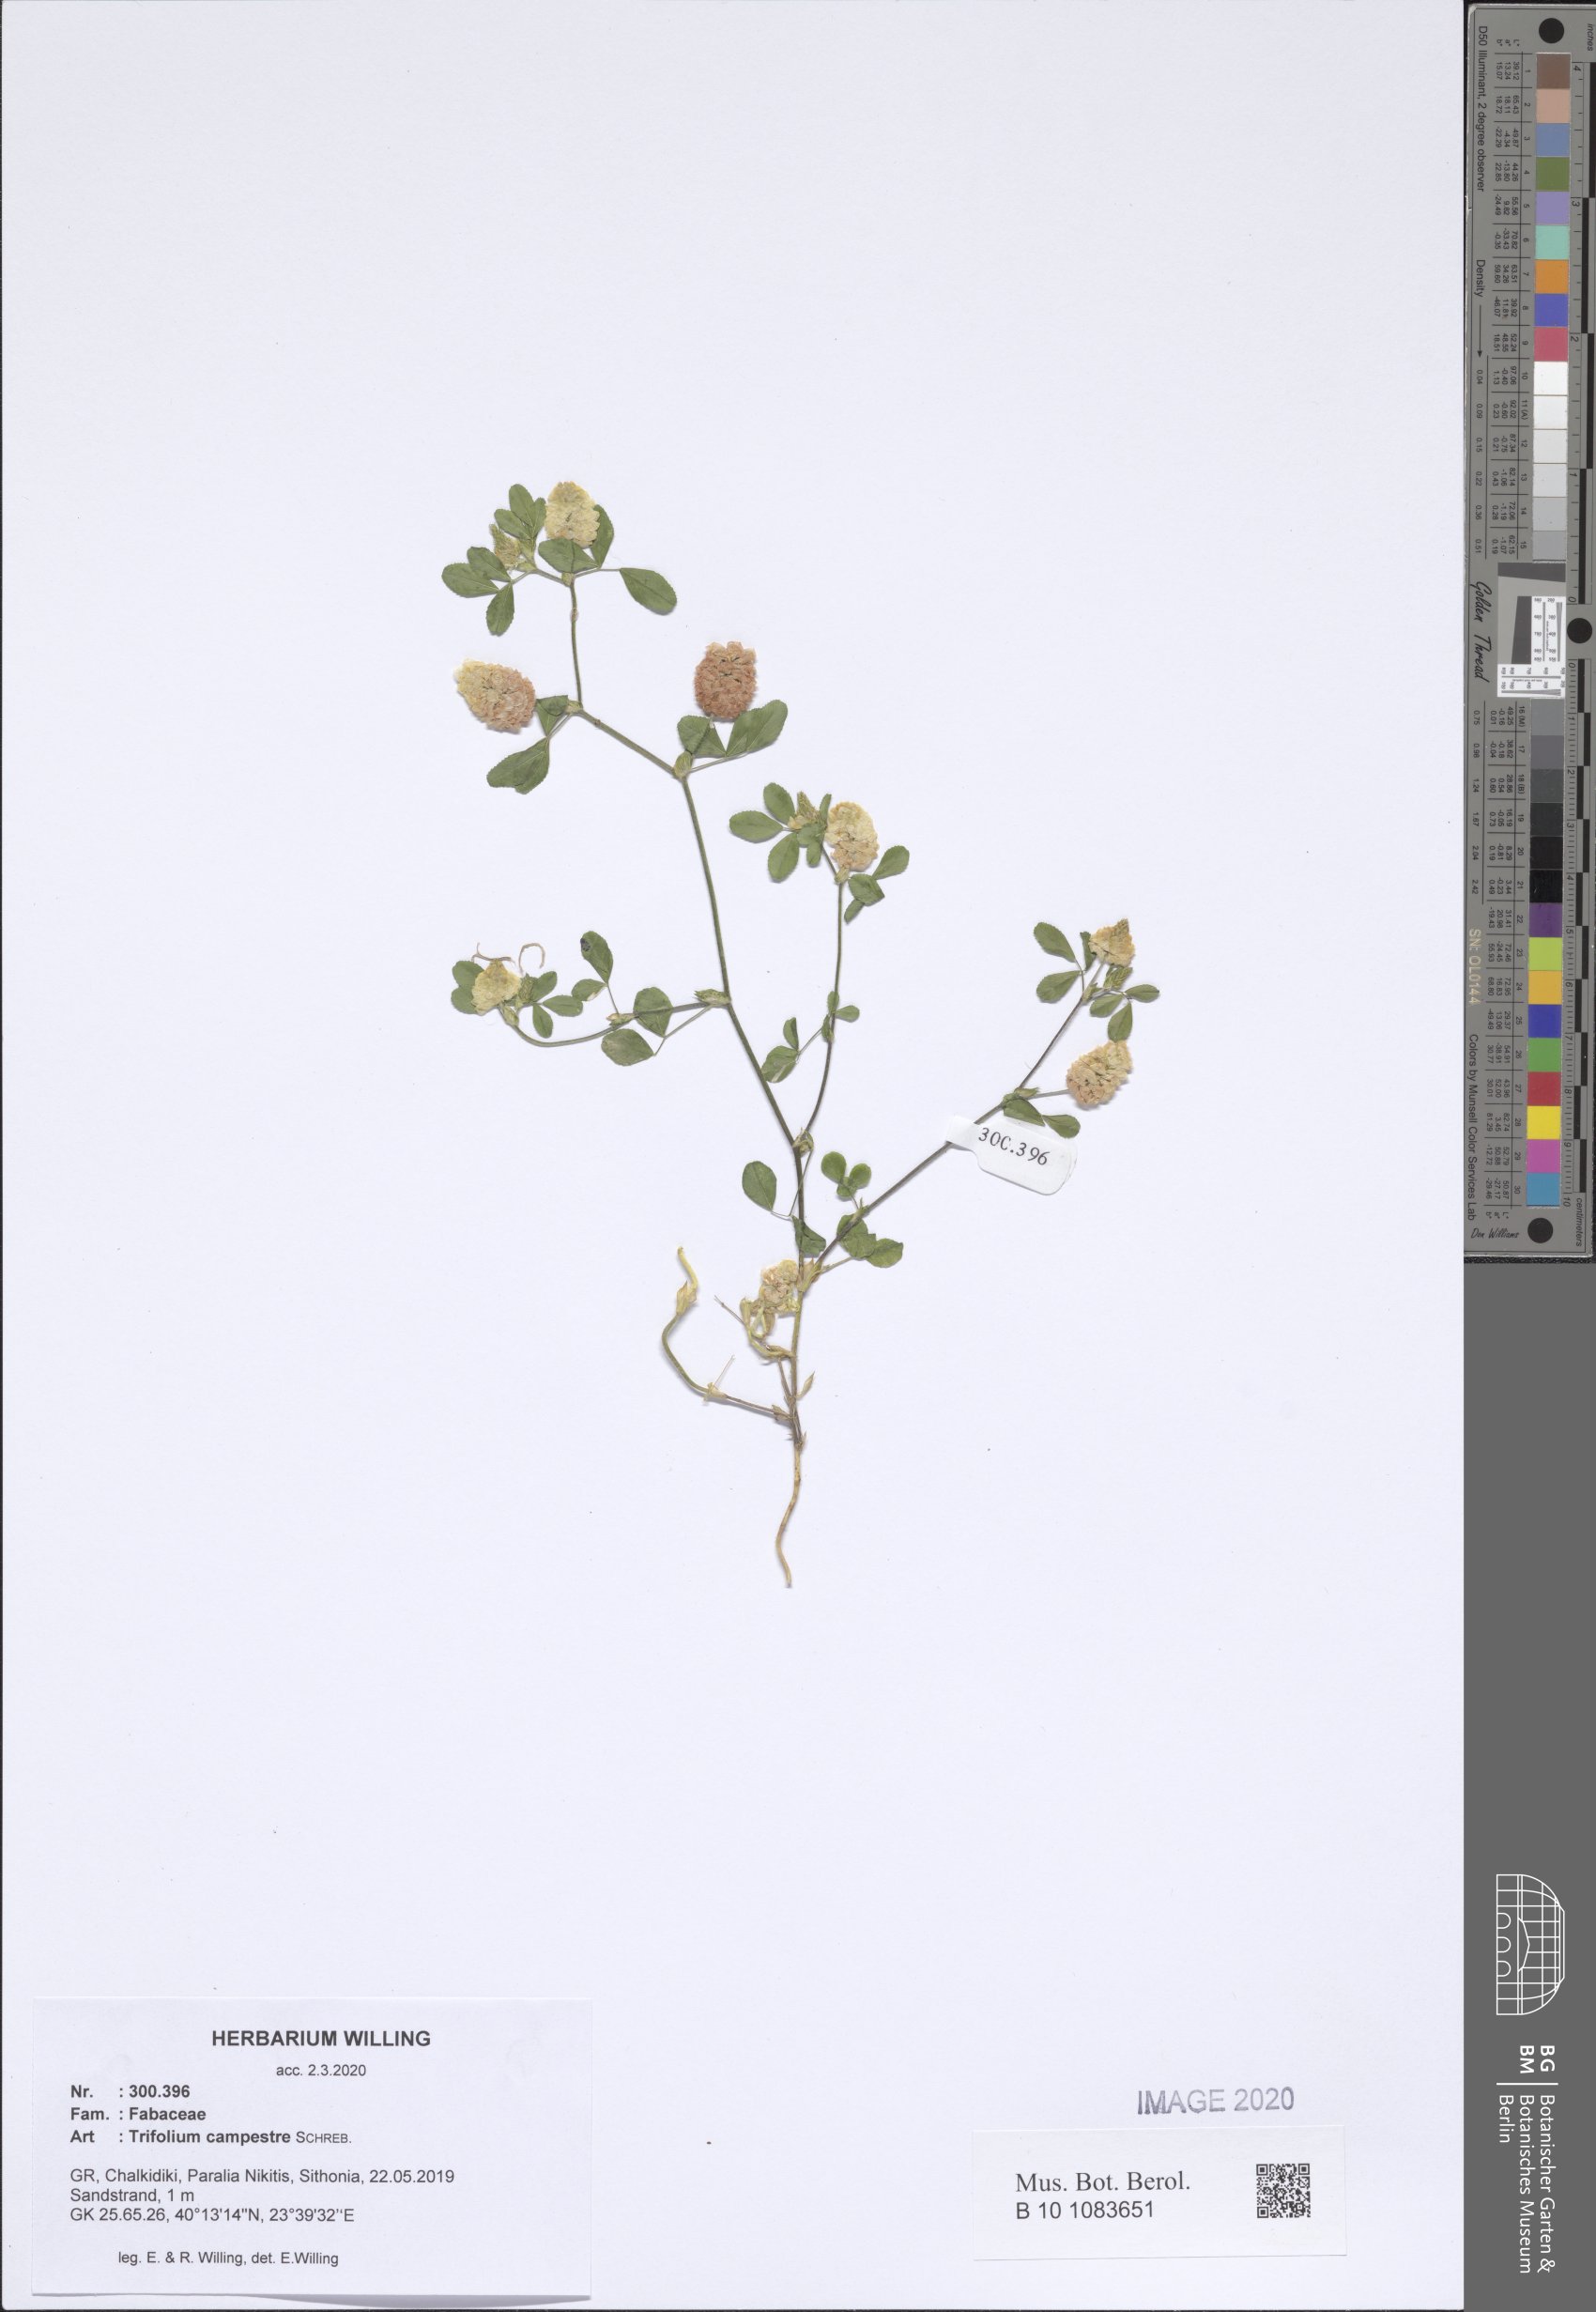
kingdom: Plantae
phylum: Tracheophyta
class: Magnoliopsida
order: Fabales
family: Fabaceae
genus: Trifolium
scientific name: Trifolium campestre
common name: Field clover
